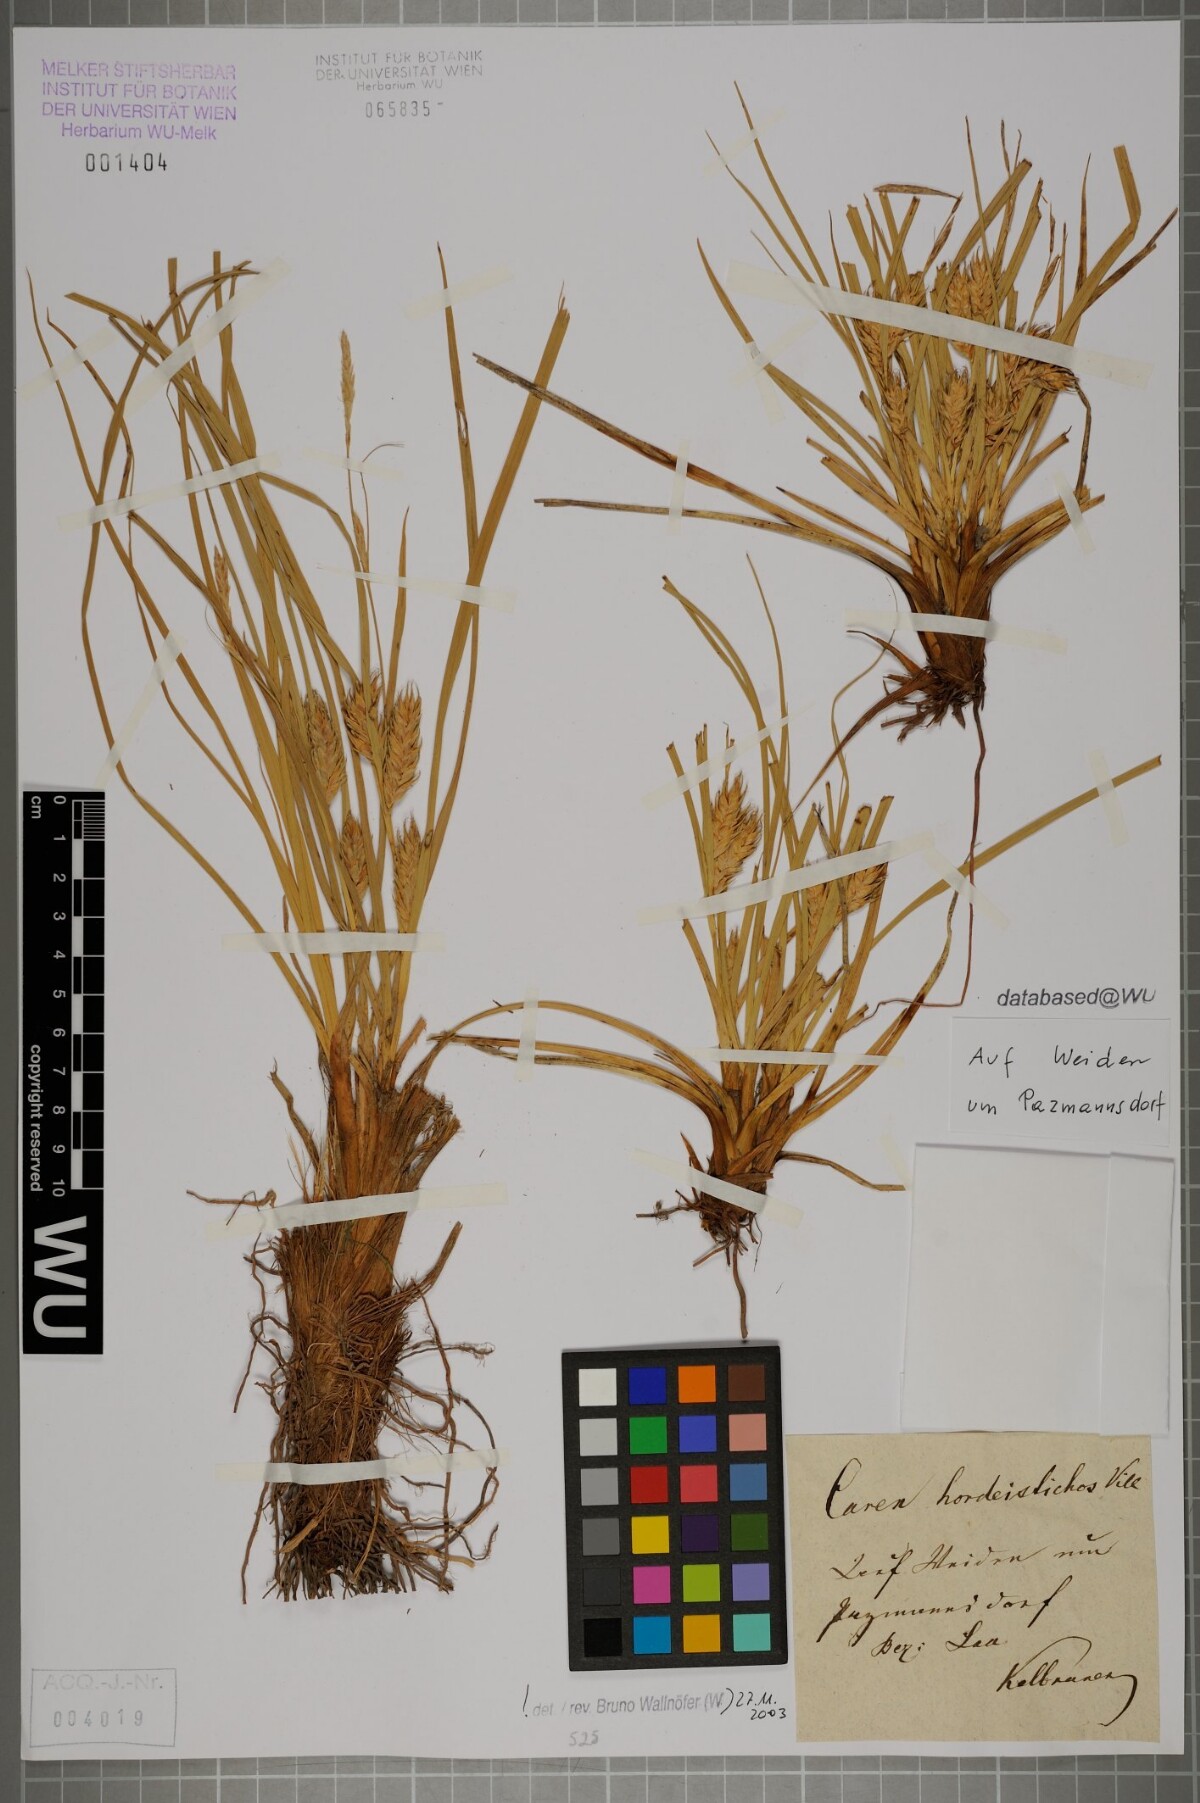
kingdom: Plantae
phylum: Tracheophyta
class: Liliopsida
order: Poales
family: Cyperaceae
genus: Carex
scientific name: Carex hordeistichos
